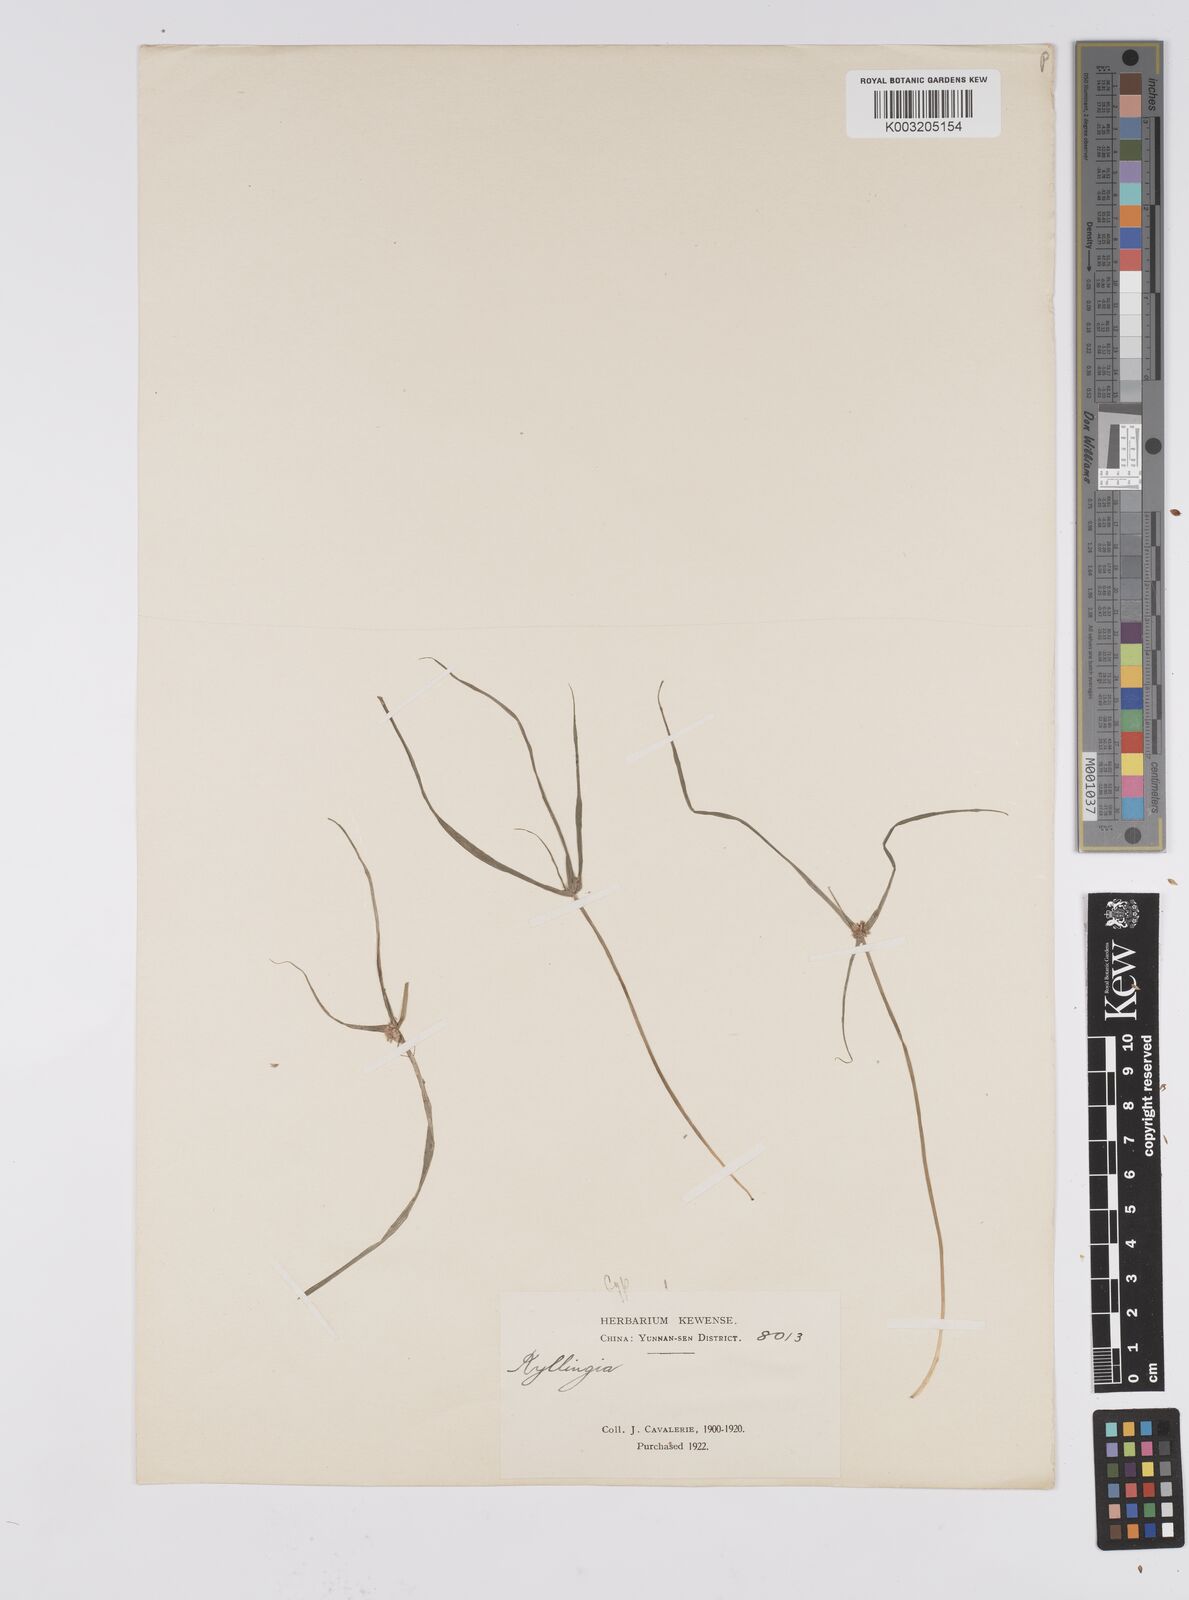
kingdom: Plantae
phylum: Tracheophyta
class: Liliopsida
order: Poales
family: Cyperaceae
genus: Cyperus
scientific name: Cyperus nemoralis
